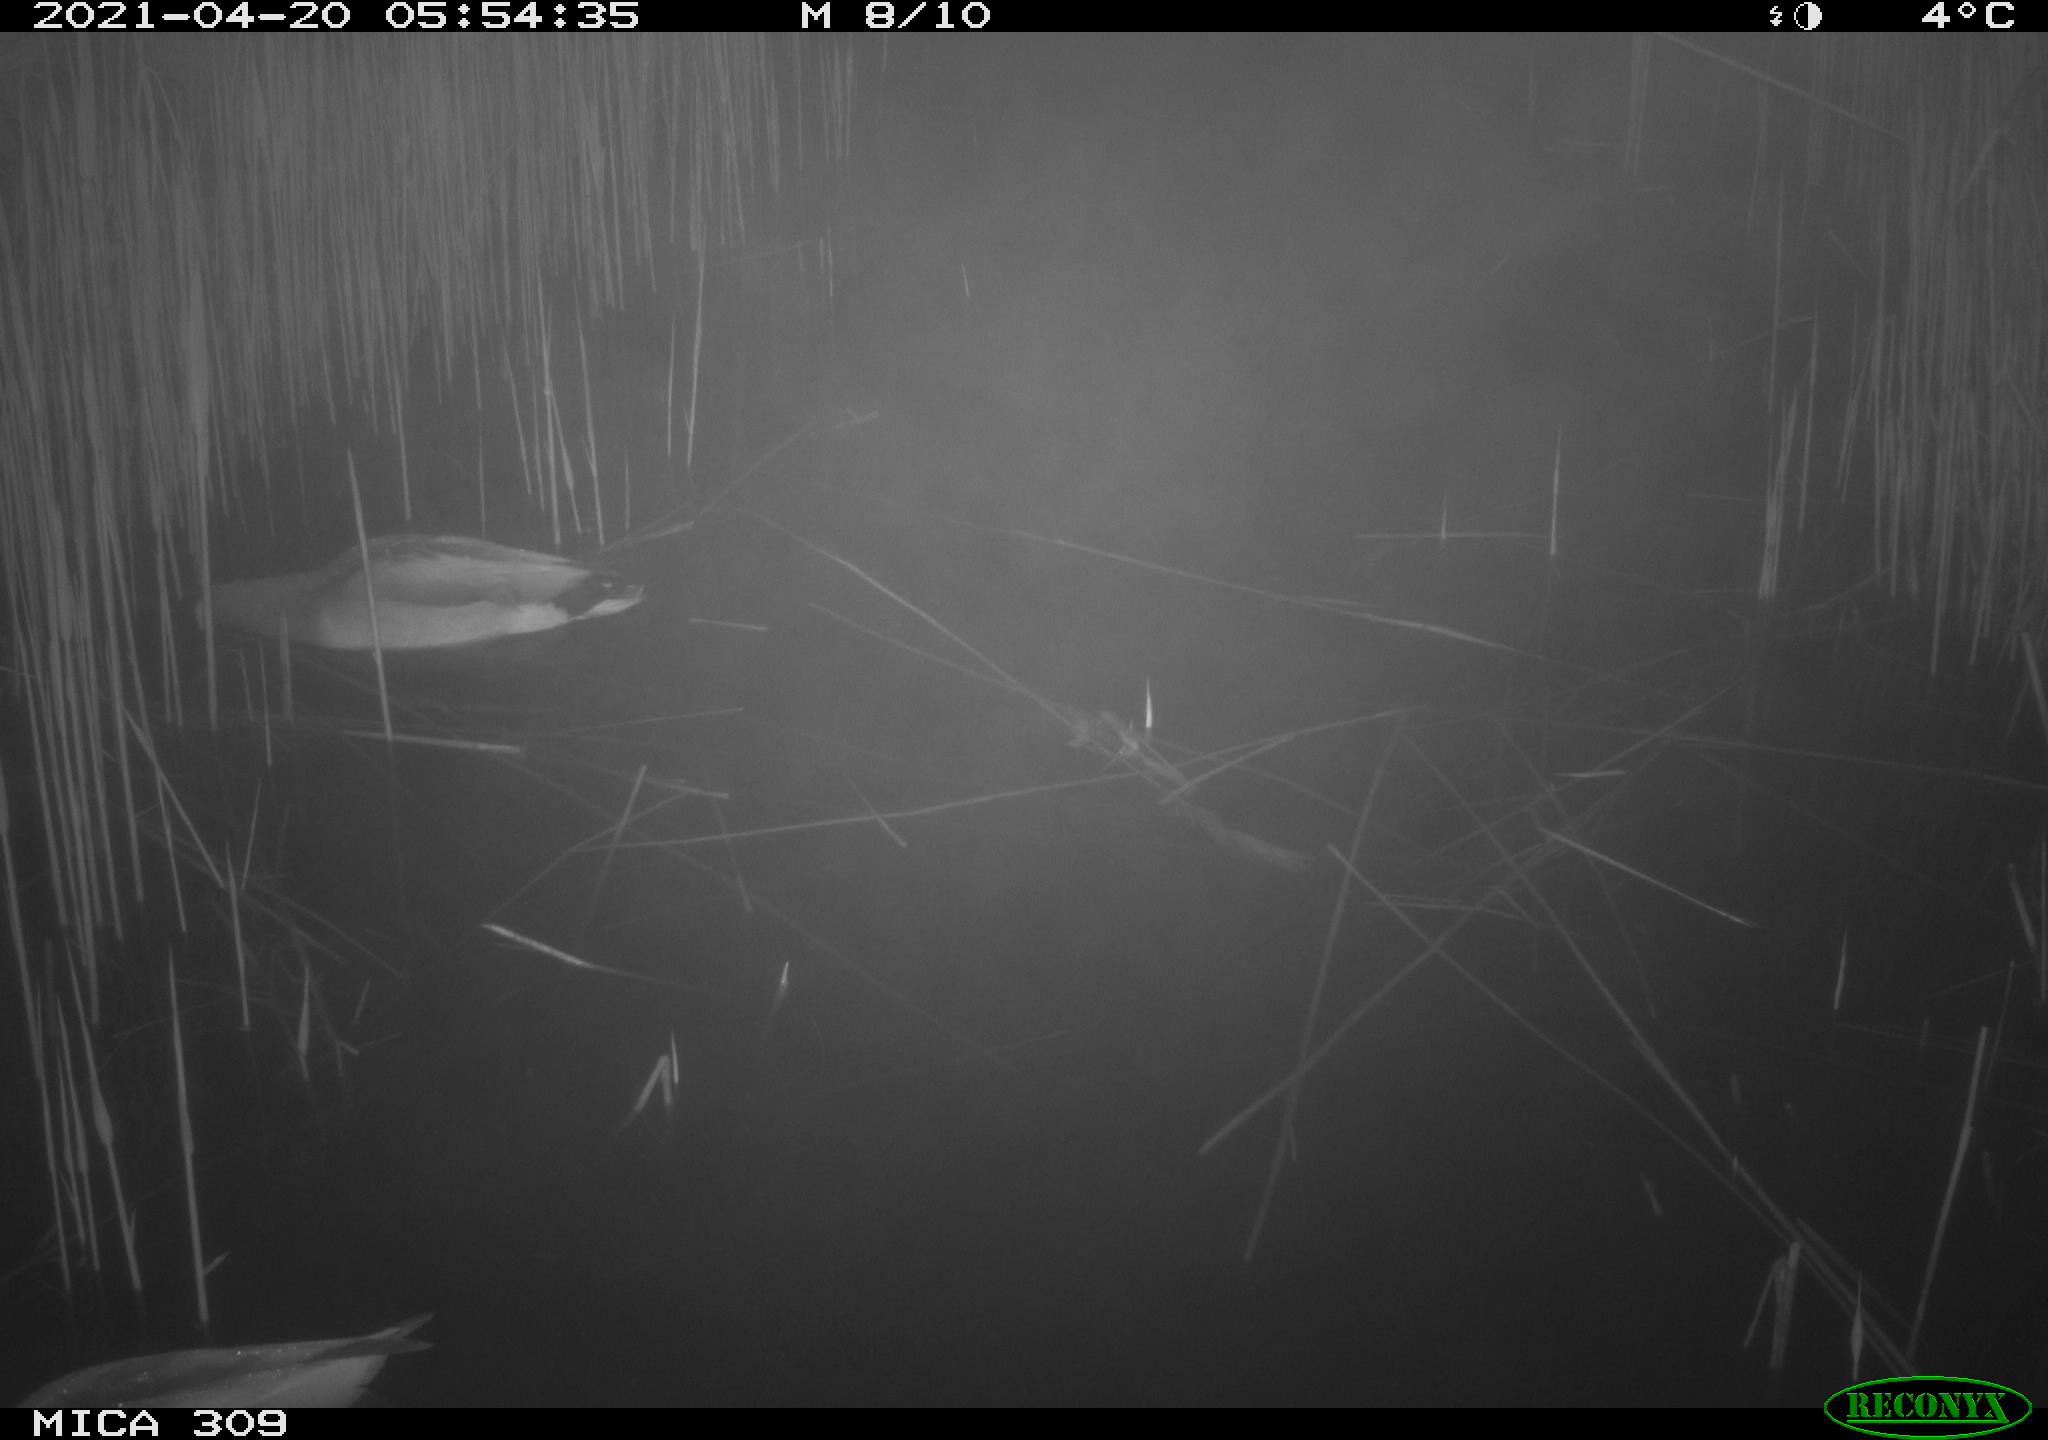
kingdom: Animalia
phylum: Chordata
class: Aves
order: Anseriformes
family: Anatidae
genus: Anas
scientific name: Anas platyrhynchos
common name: Mallard
